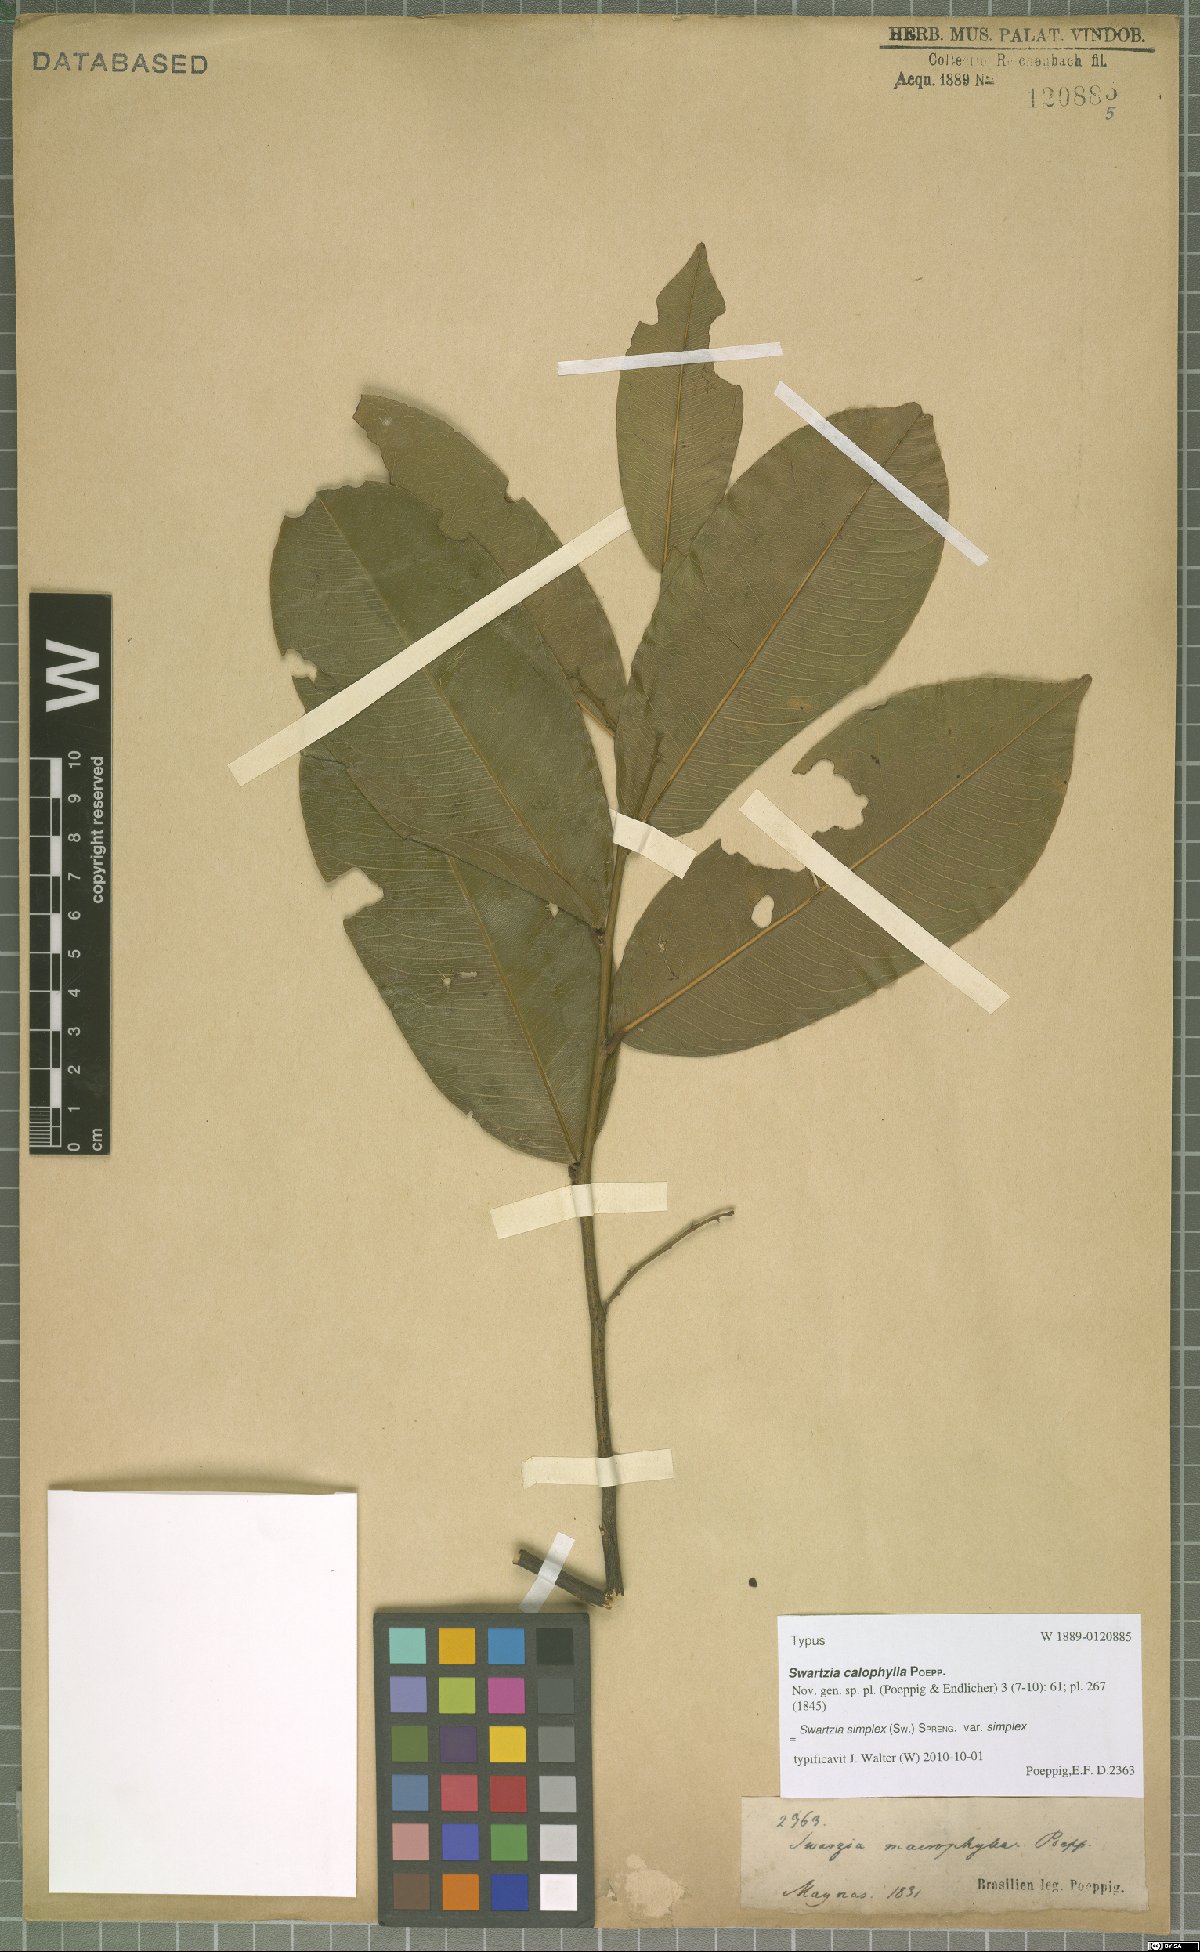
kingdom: Plantae
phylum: Tracheophyta
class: Magnoliopsida
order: Fabales
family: Fabaceae
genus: Swartzia
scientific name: Swartzia simplex
